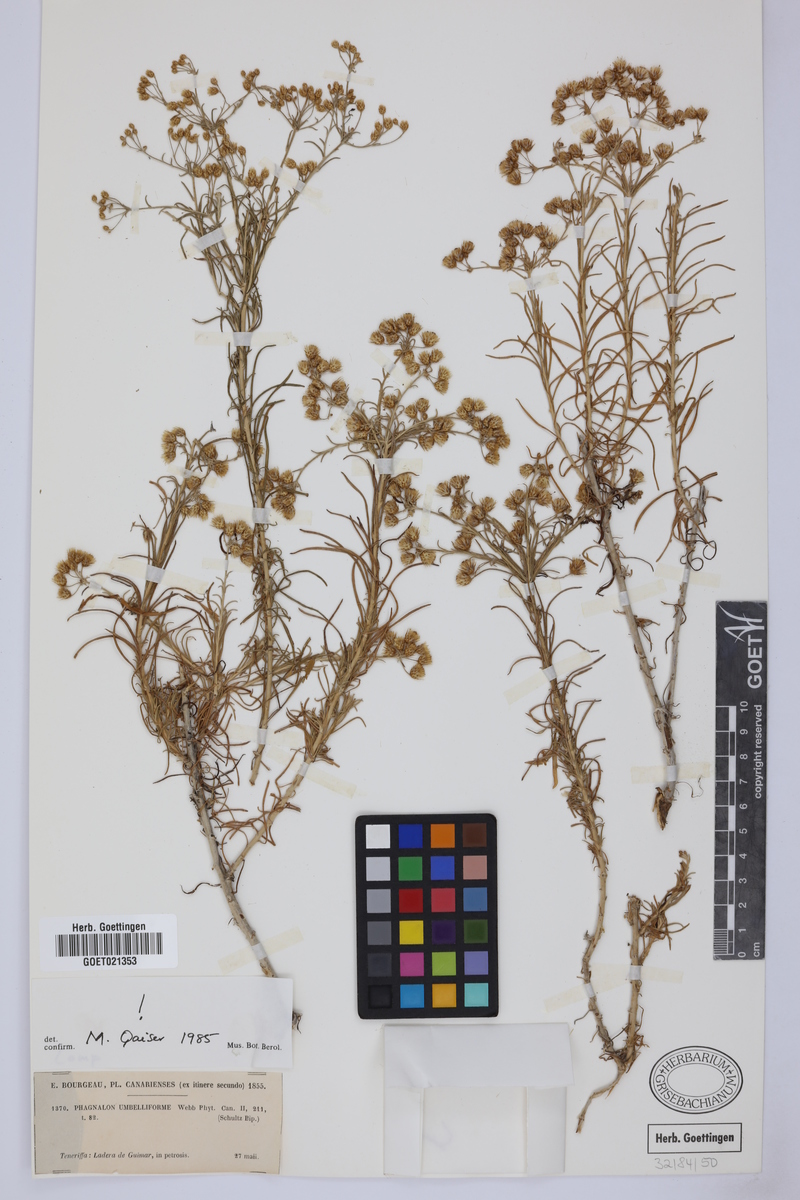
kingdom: Plantae
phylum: Tracheophyta
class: Magnoliopsida
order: Asterales
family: Asteraceae
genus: Phagnalon
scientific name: Phagnalon umbelliforme
